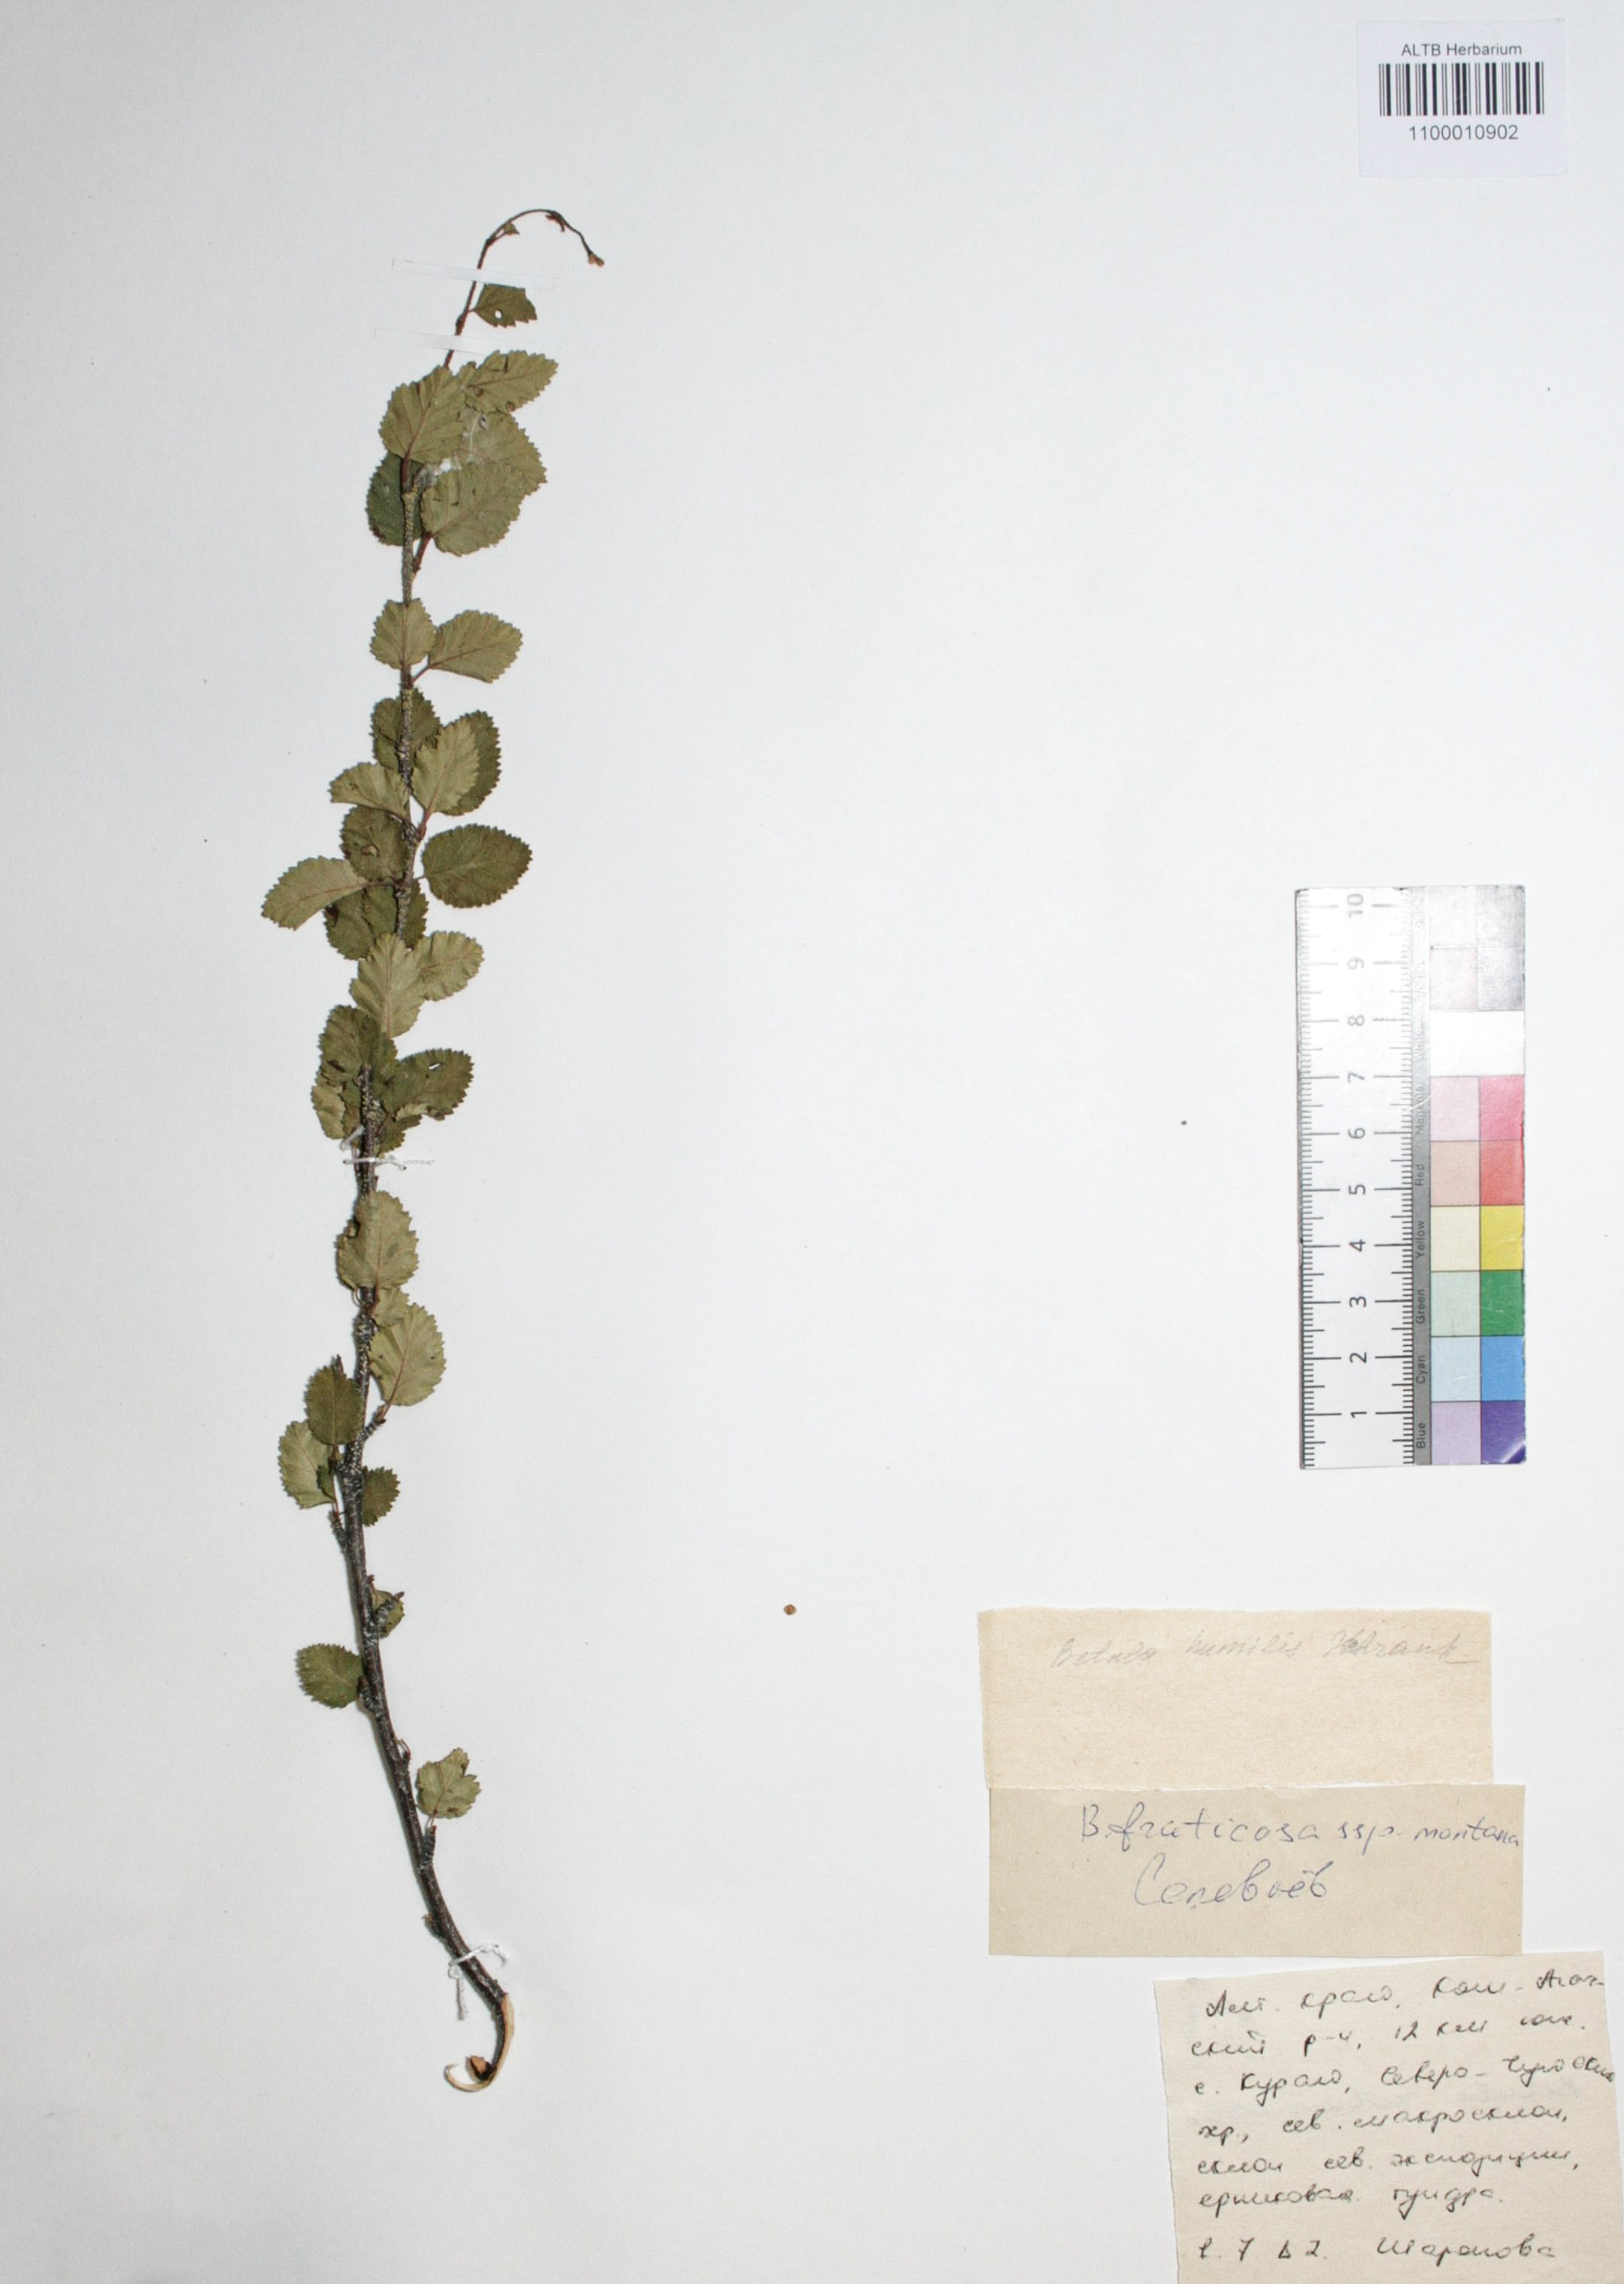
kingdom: Plantae
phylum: Tracheophyta
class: Magnoliopsida
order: Fagales
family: Betulaceae
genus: Betula
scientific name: Betula fruticosa
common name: Japanese bog birch
